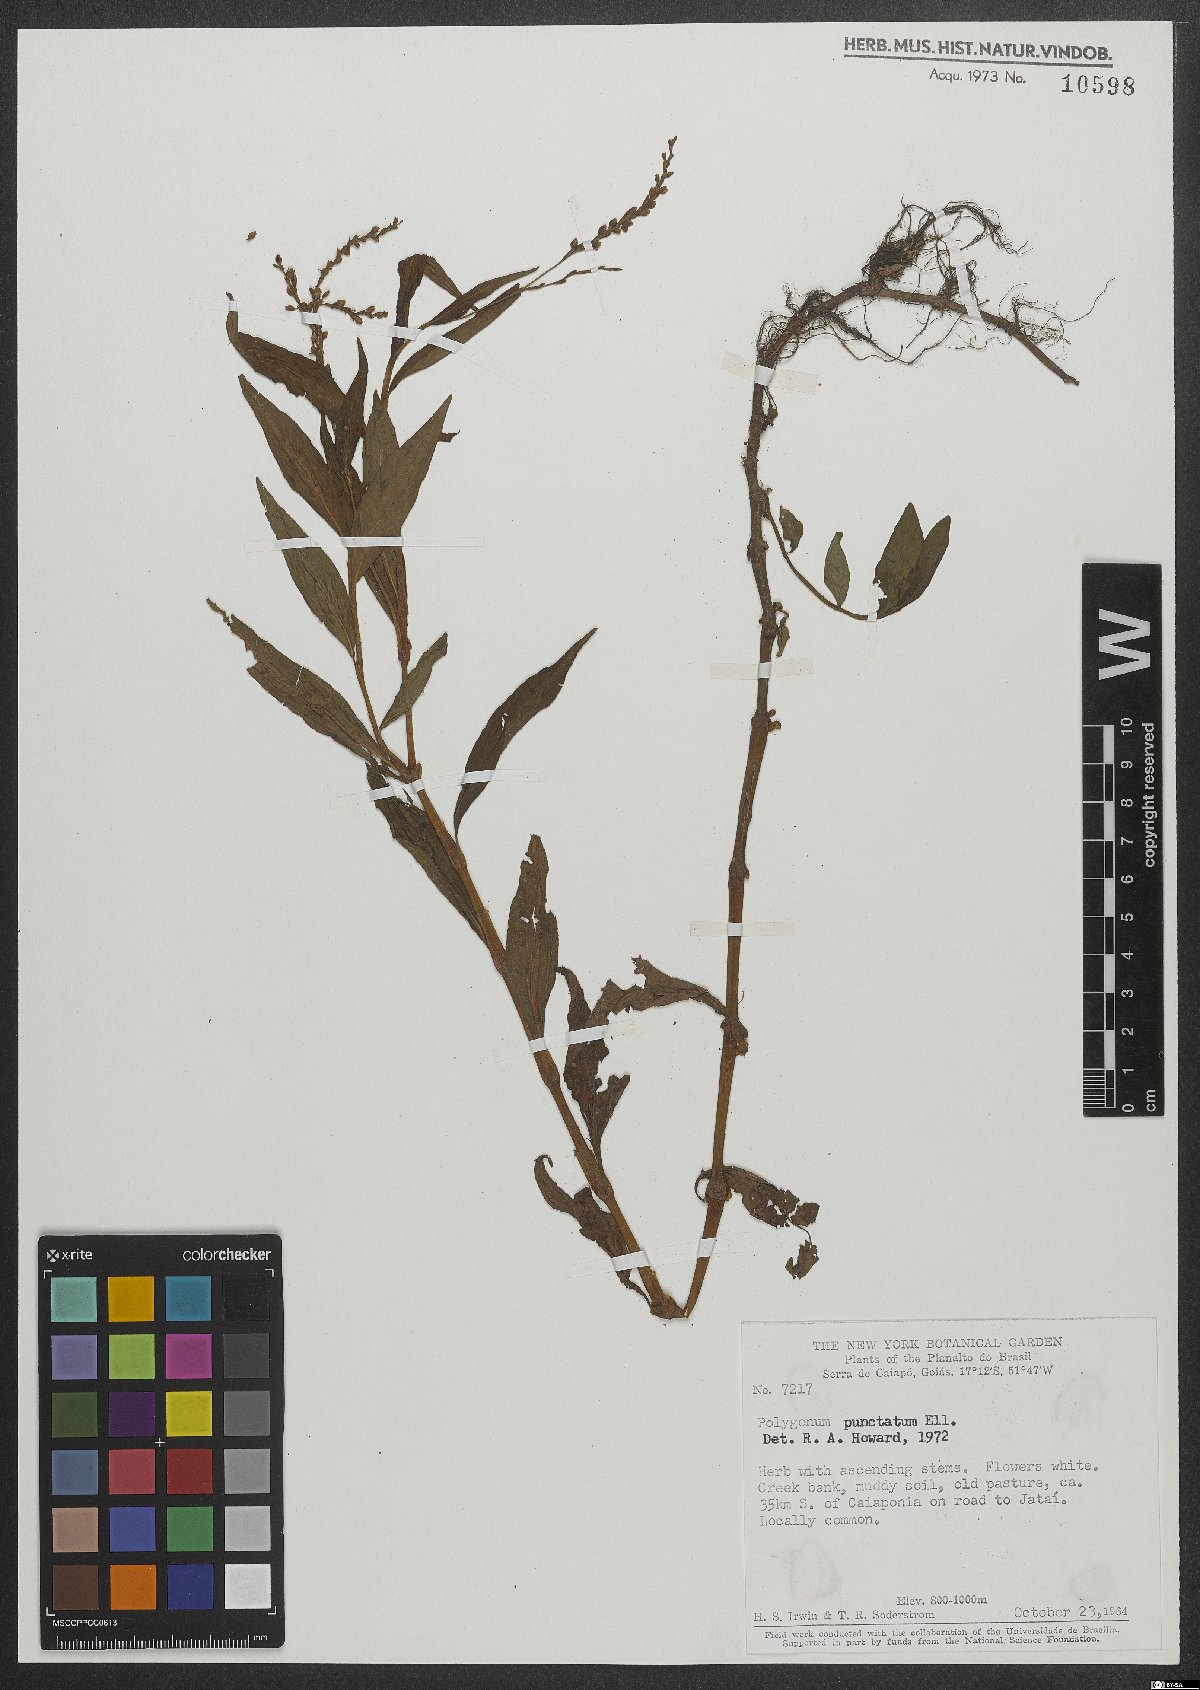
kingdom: Plantae
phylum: Tracheophyta
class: Magnoliopsida
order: Caryophyllales
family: Polygonaceae
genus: Persicaria
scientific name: Persicaria punctata
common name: Dotted smartweed
